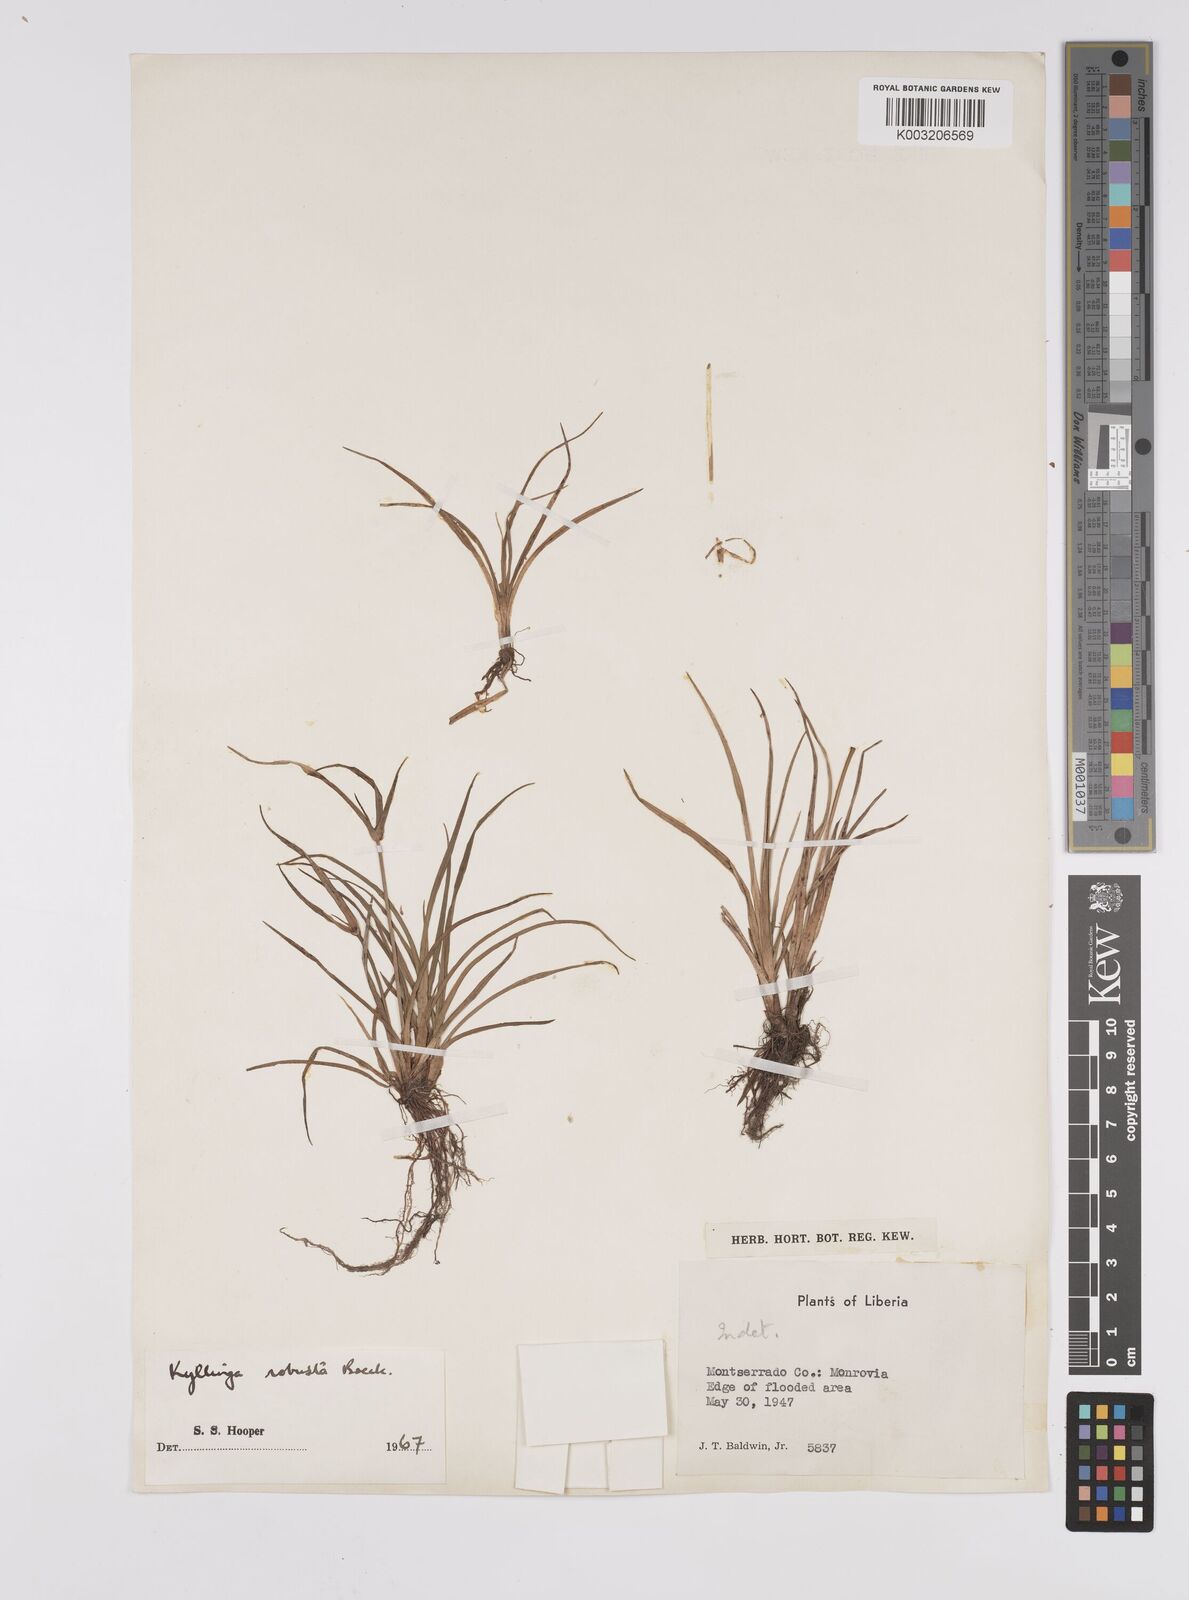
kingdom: Plantae
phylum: Tracheophyta
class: Liliopsida
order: Poales
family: Cyperaceae
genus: Cyperus
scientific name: Cyperus
